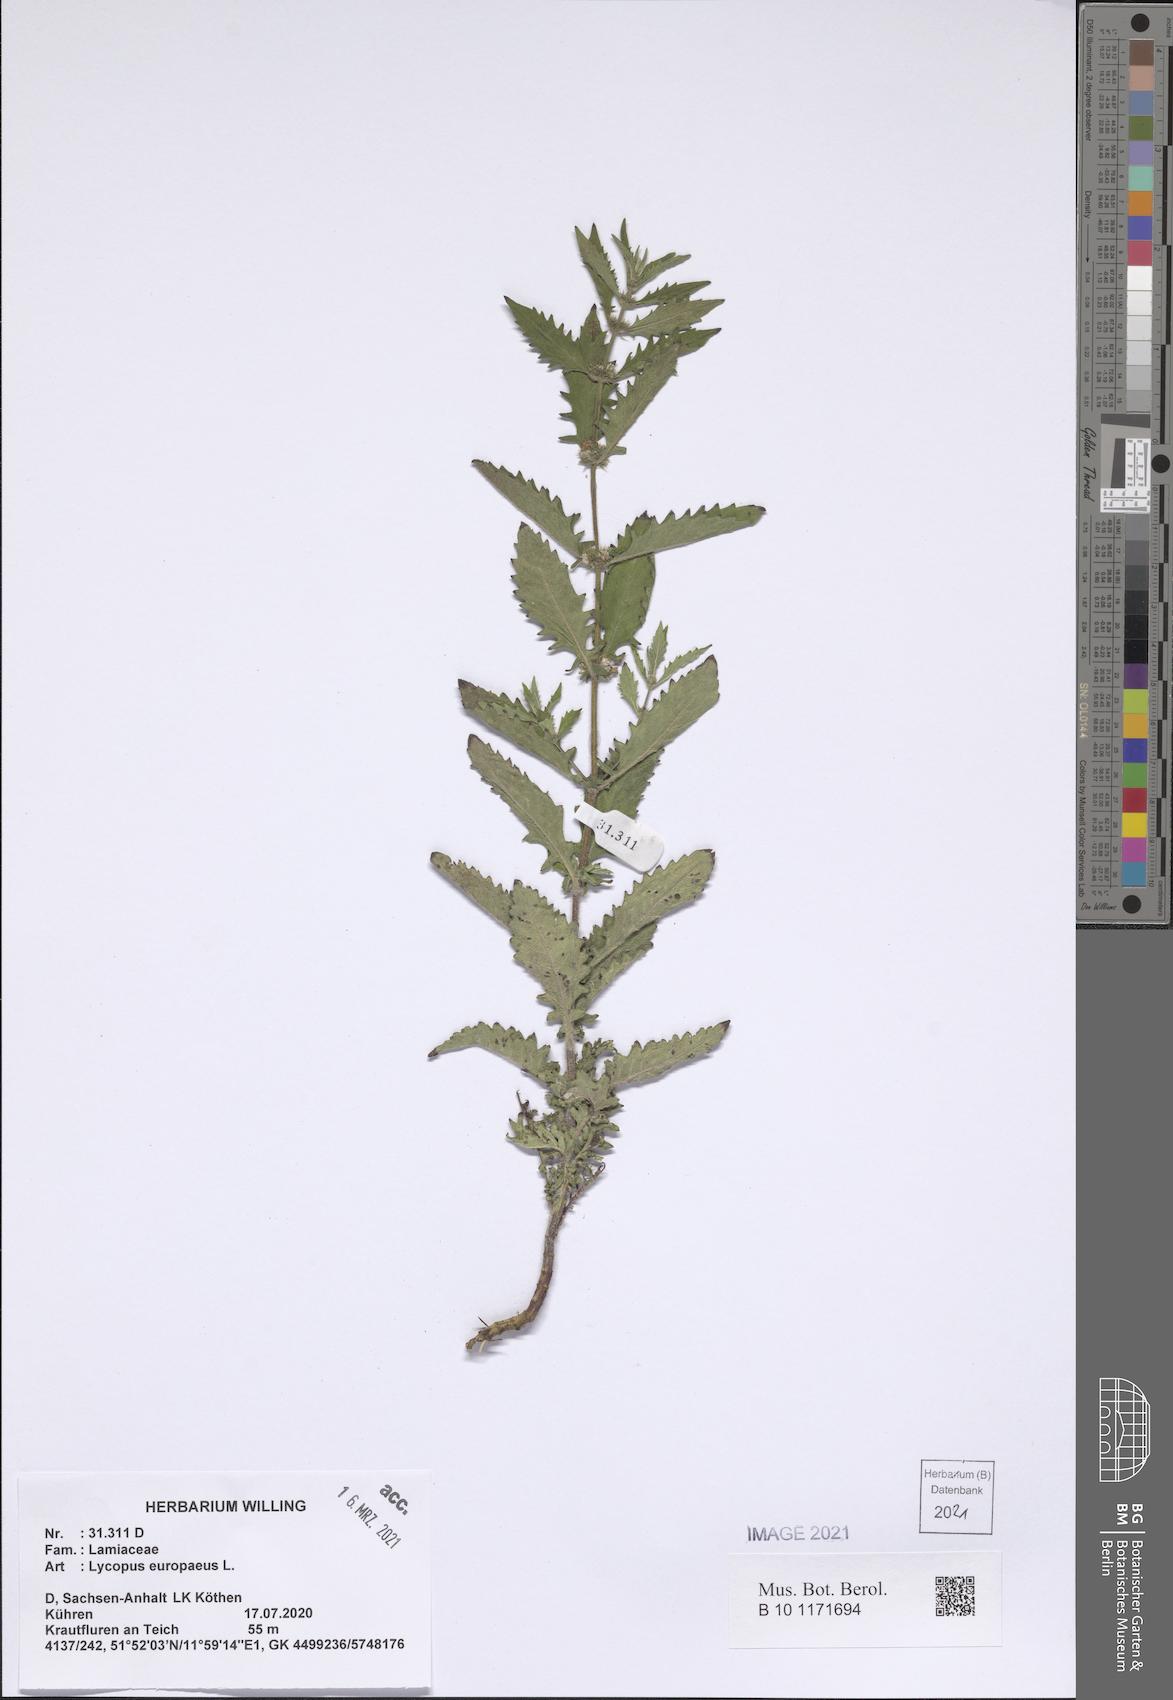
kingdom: Plantae
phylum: Tracheophyta
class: Magnoliopsida
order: Lamiales
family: Lamiaceae
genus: Lycopus
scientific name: Lycopus europaeus
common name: European bugleweed
